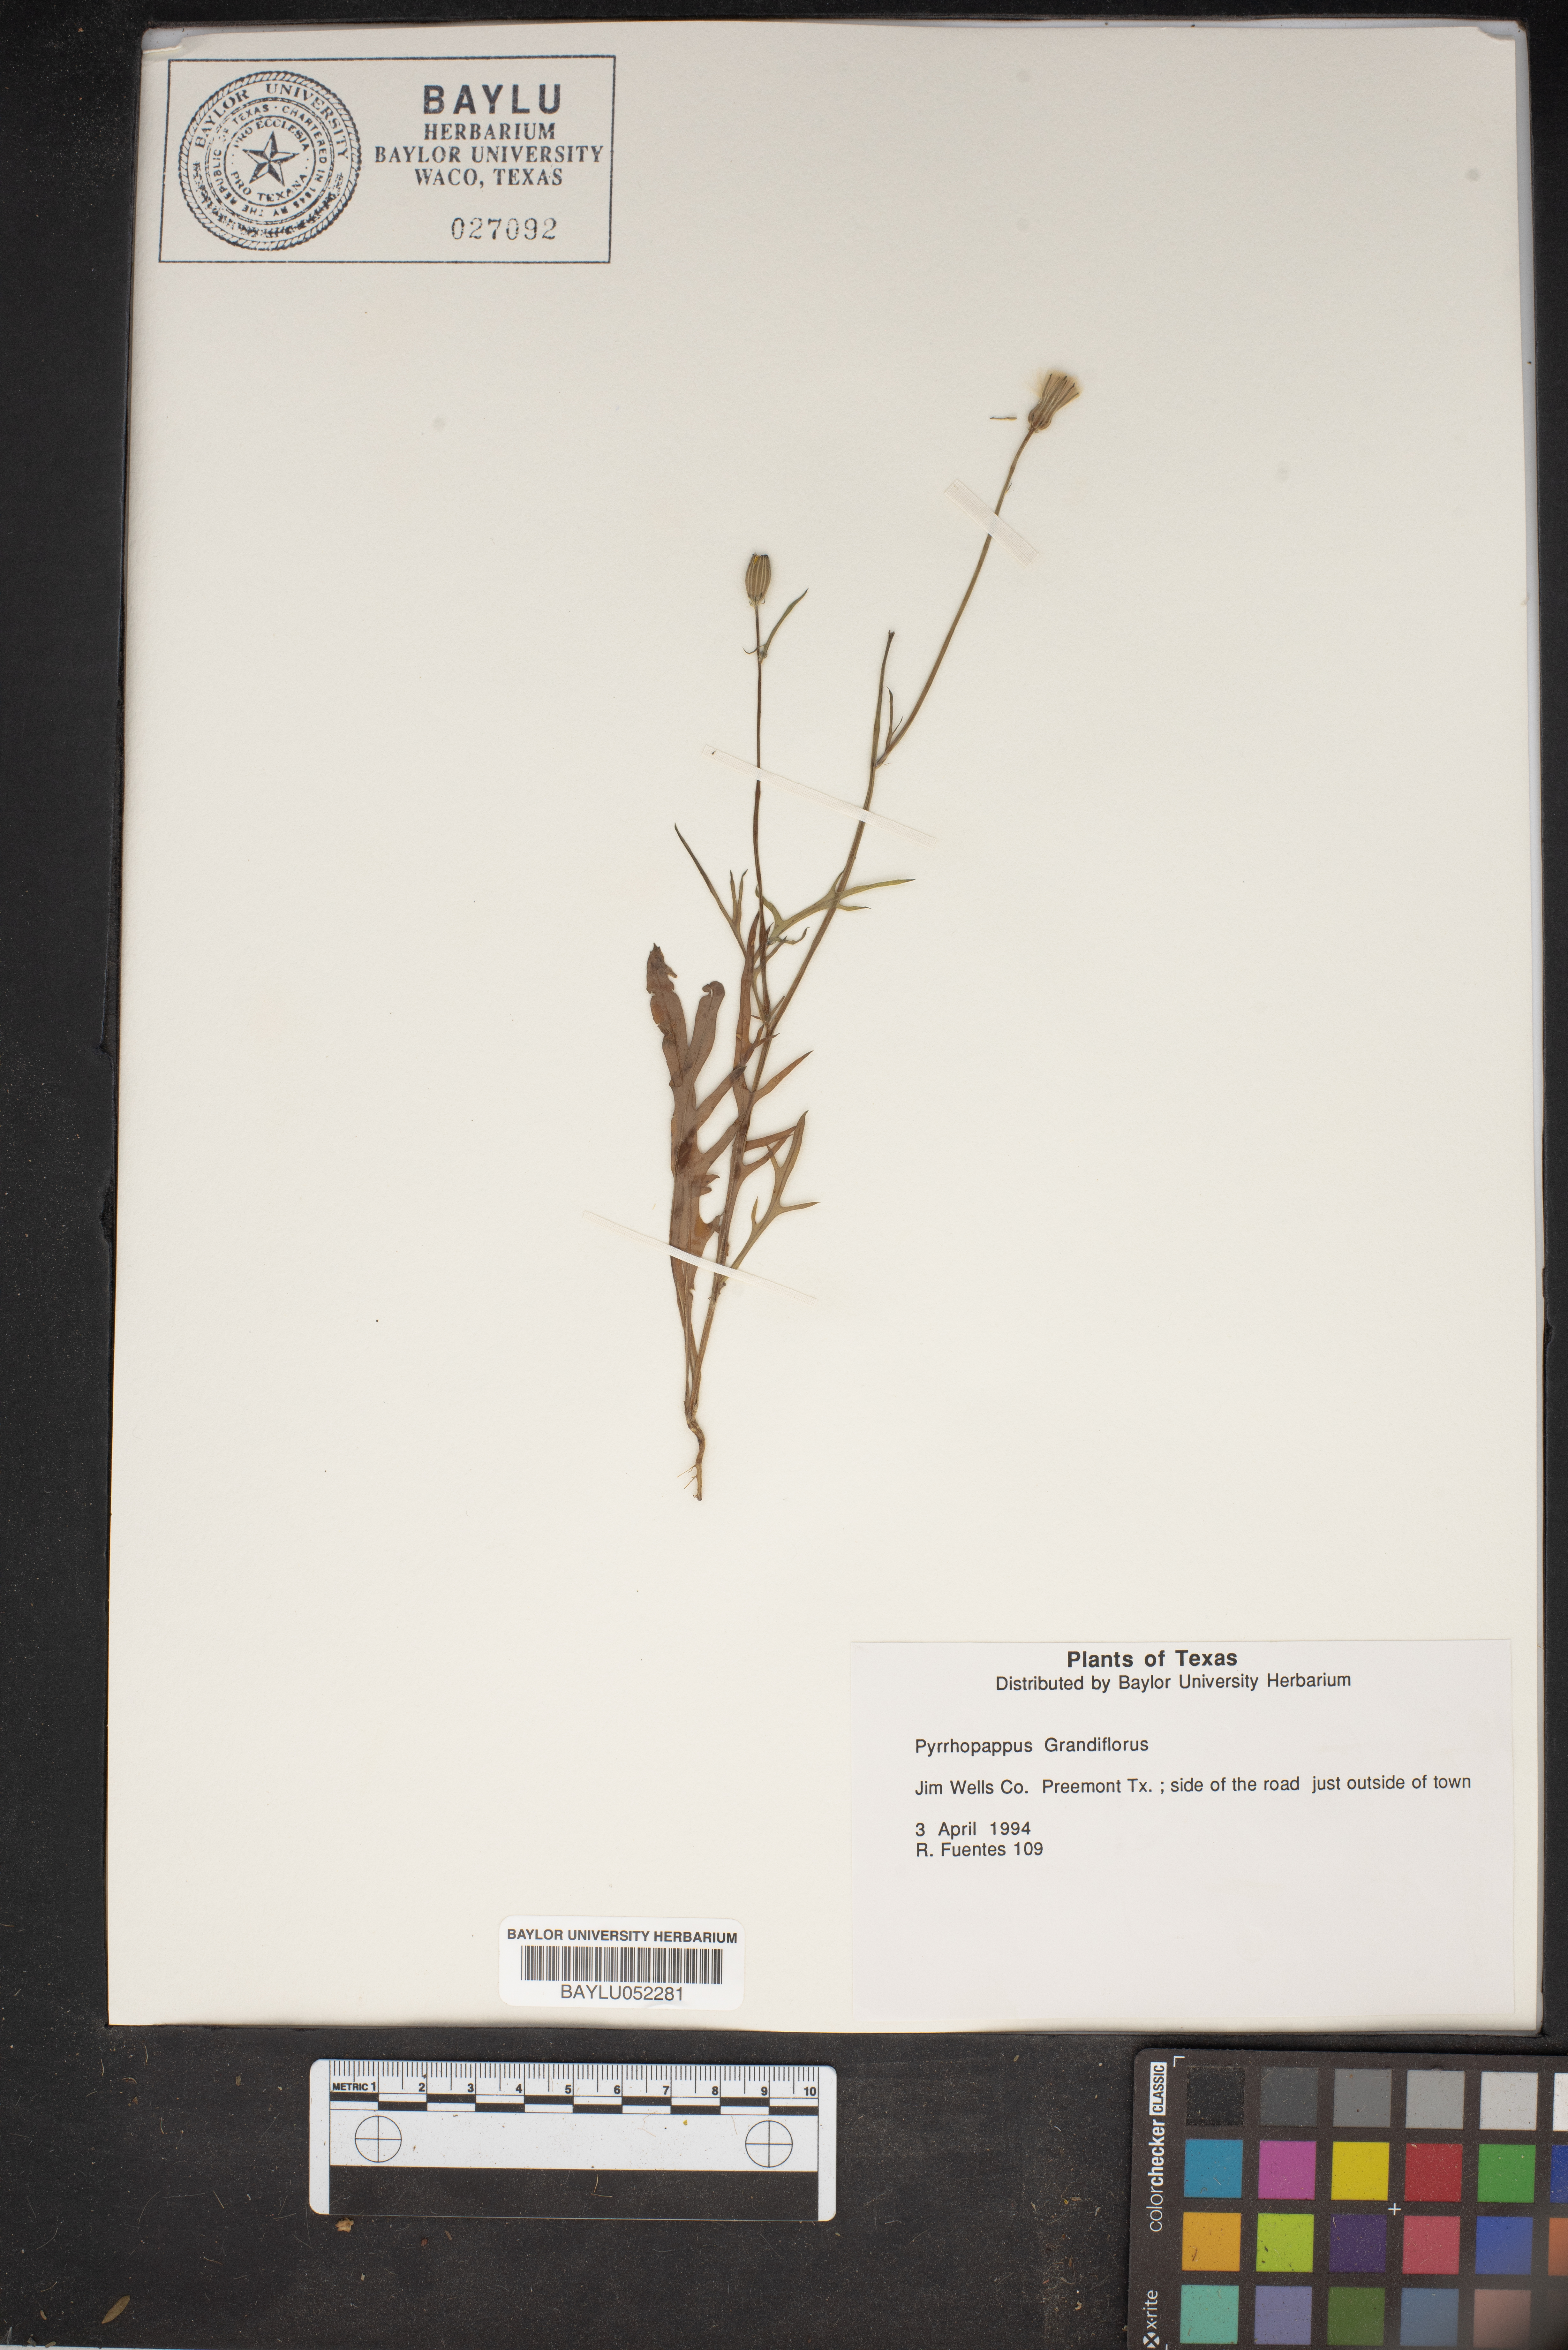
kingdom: Plantae
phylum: Tracheophyta
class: Magnoliopsida
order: Asterales
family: Asteraceae
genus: Pyrrhopappus
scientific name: Pyrrhopappus grandiflorus
